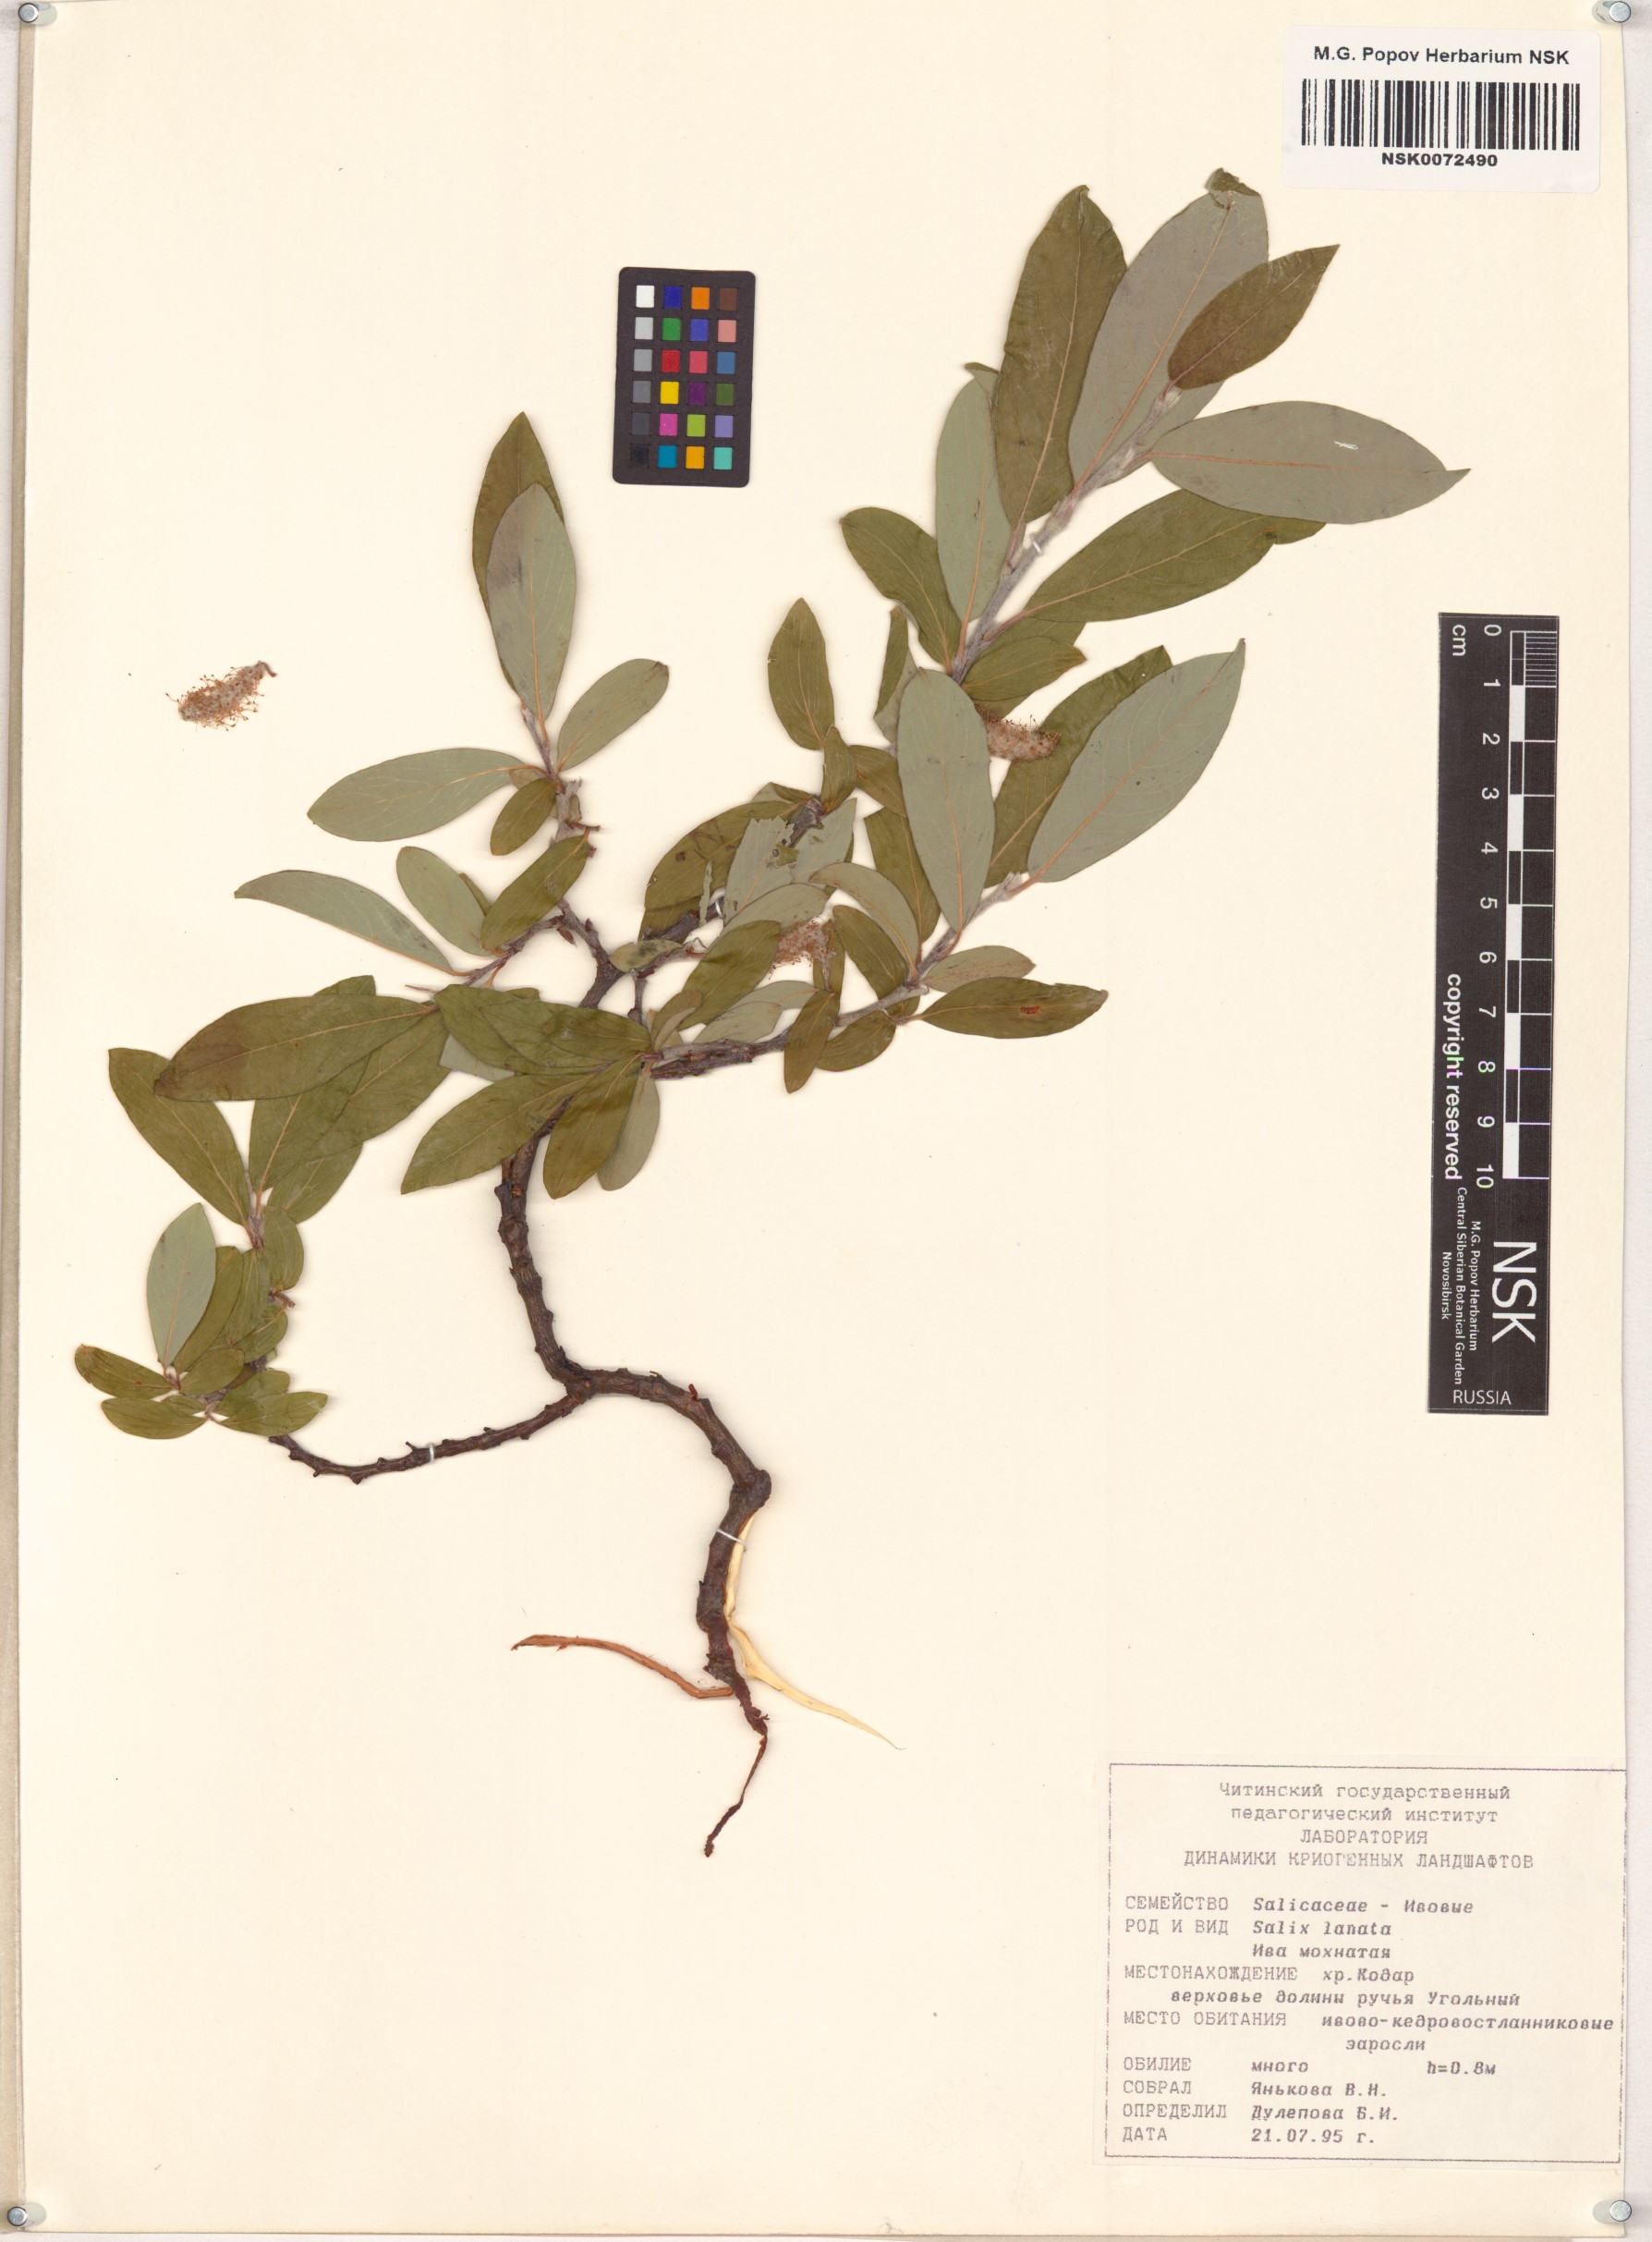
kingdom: Plantae
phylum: Tracheophyta
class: Magnoliopsida
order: Malpighiales
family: Salicaceae
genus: Salix
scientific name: Salix lanata
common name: Woolly willow
